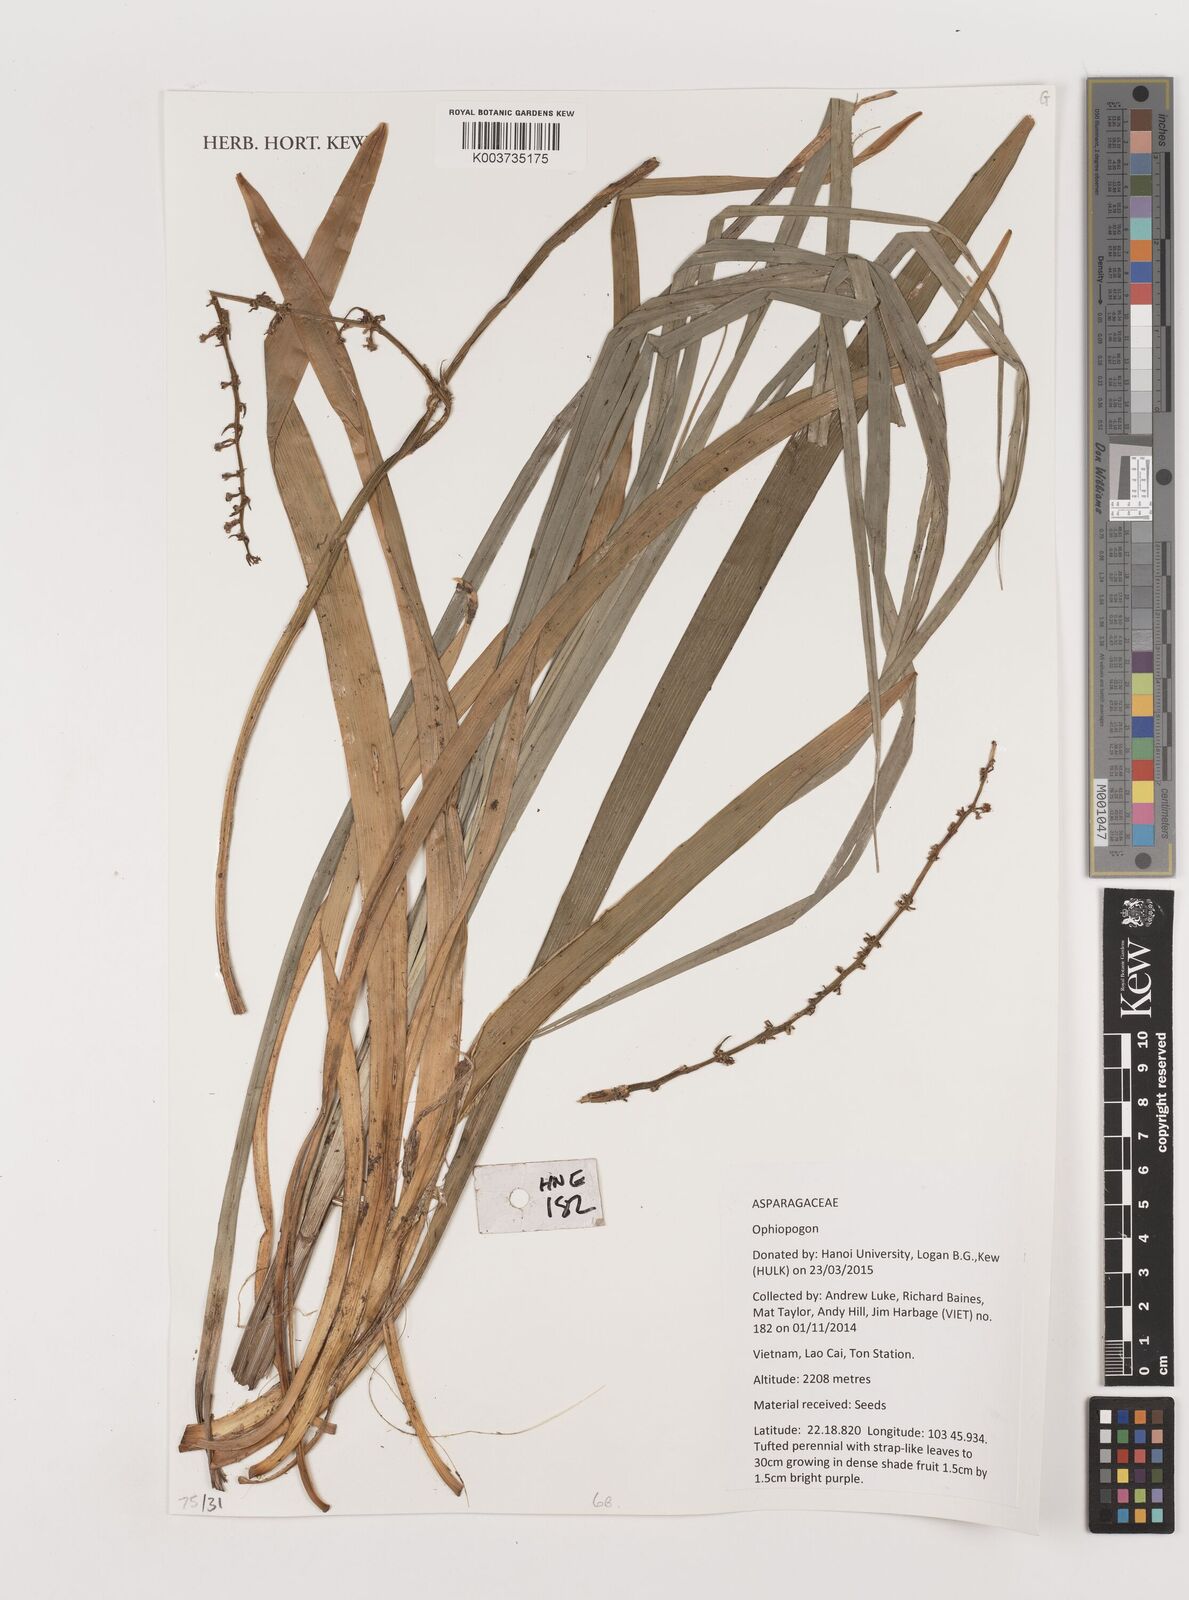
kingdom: Plantae
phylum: Tracheophyta
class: Liliopsida
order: Asparagales
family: Asparagaceae
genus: Ophiopogon
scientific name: Ophiopogon
